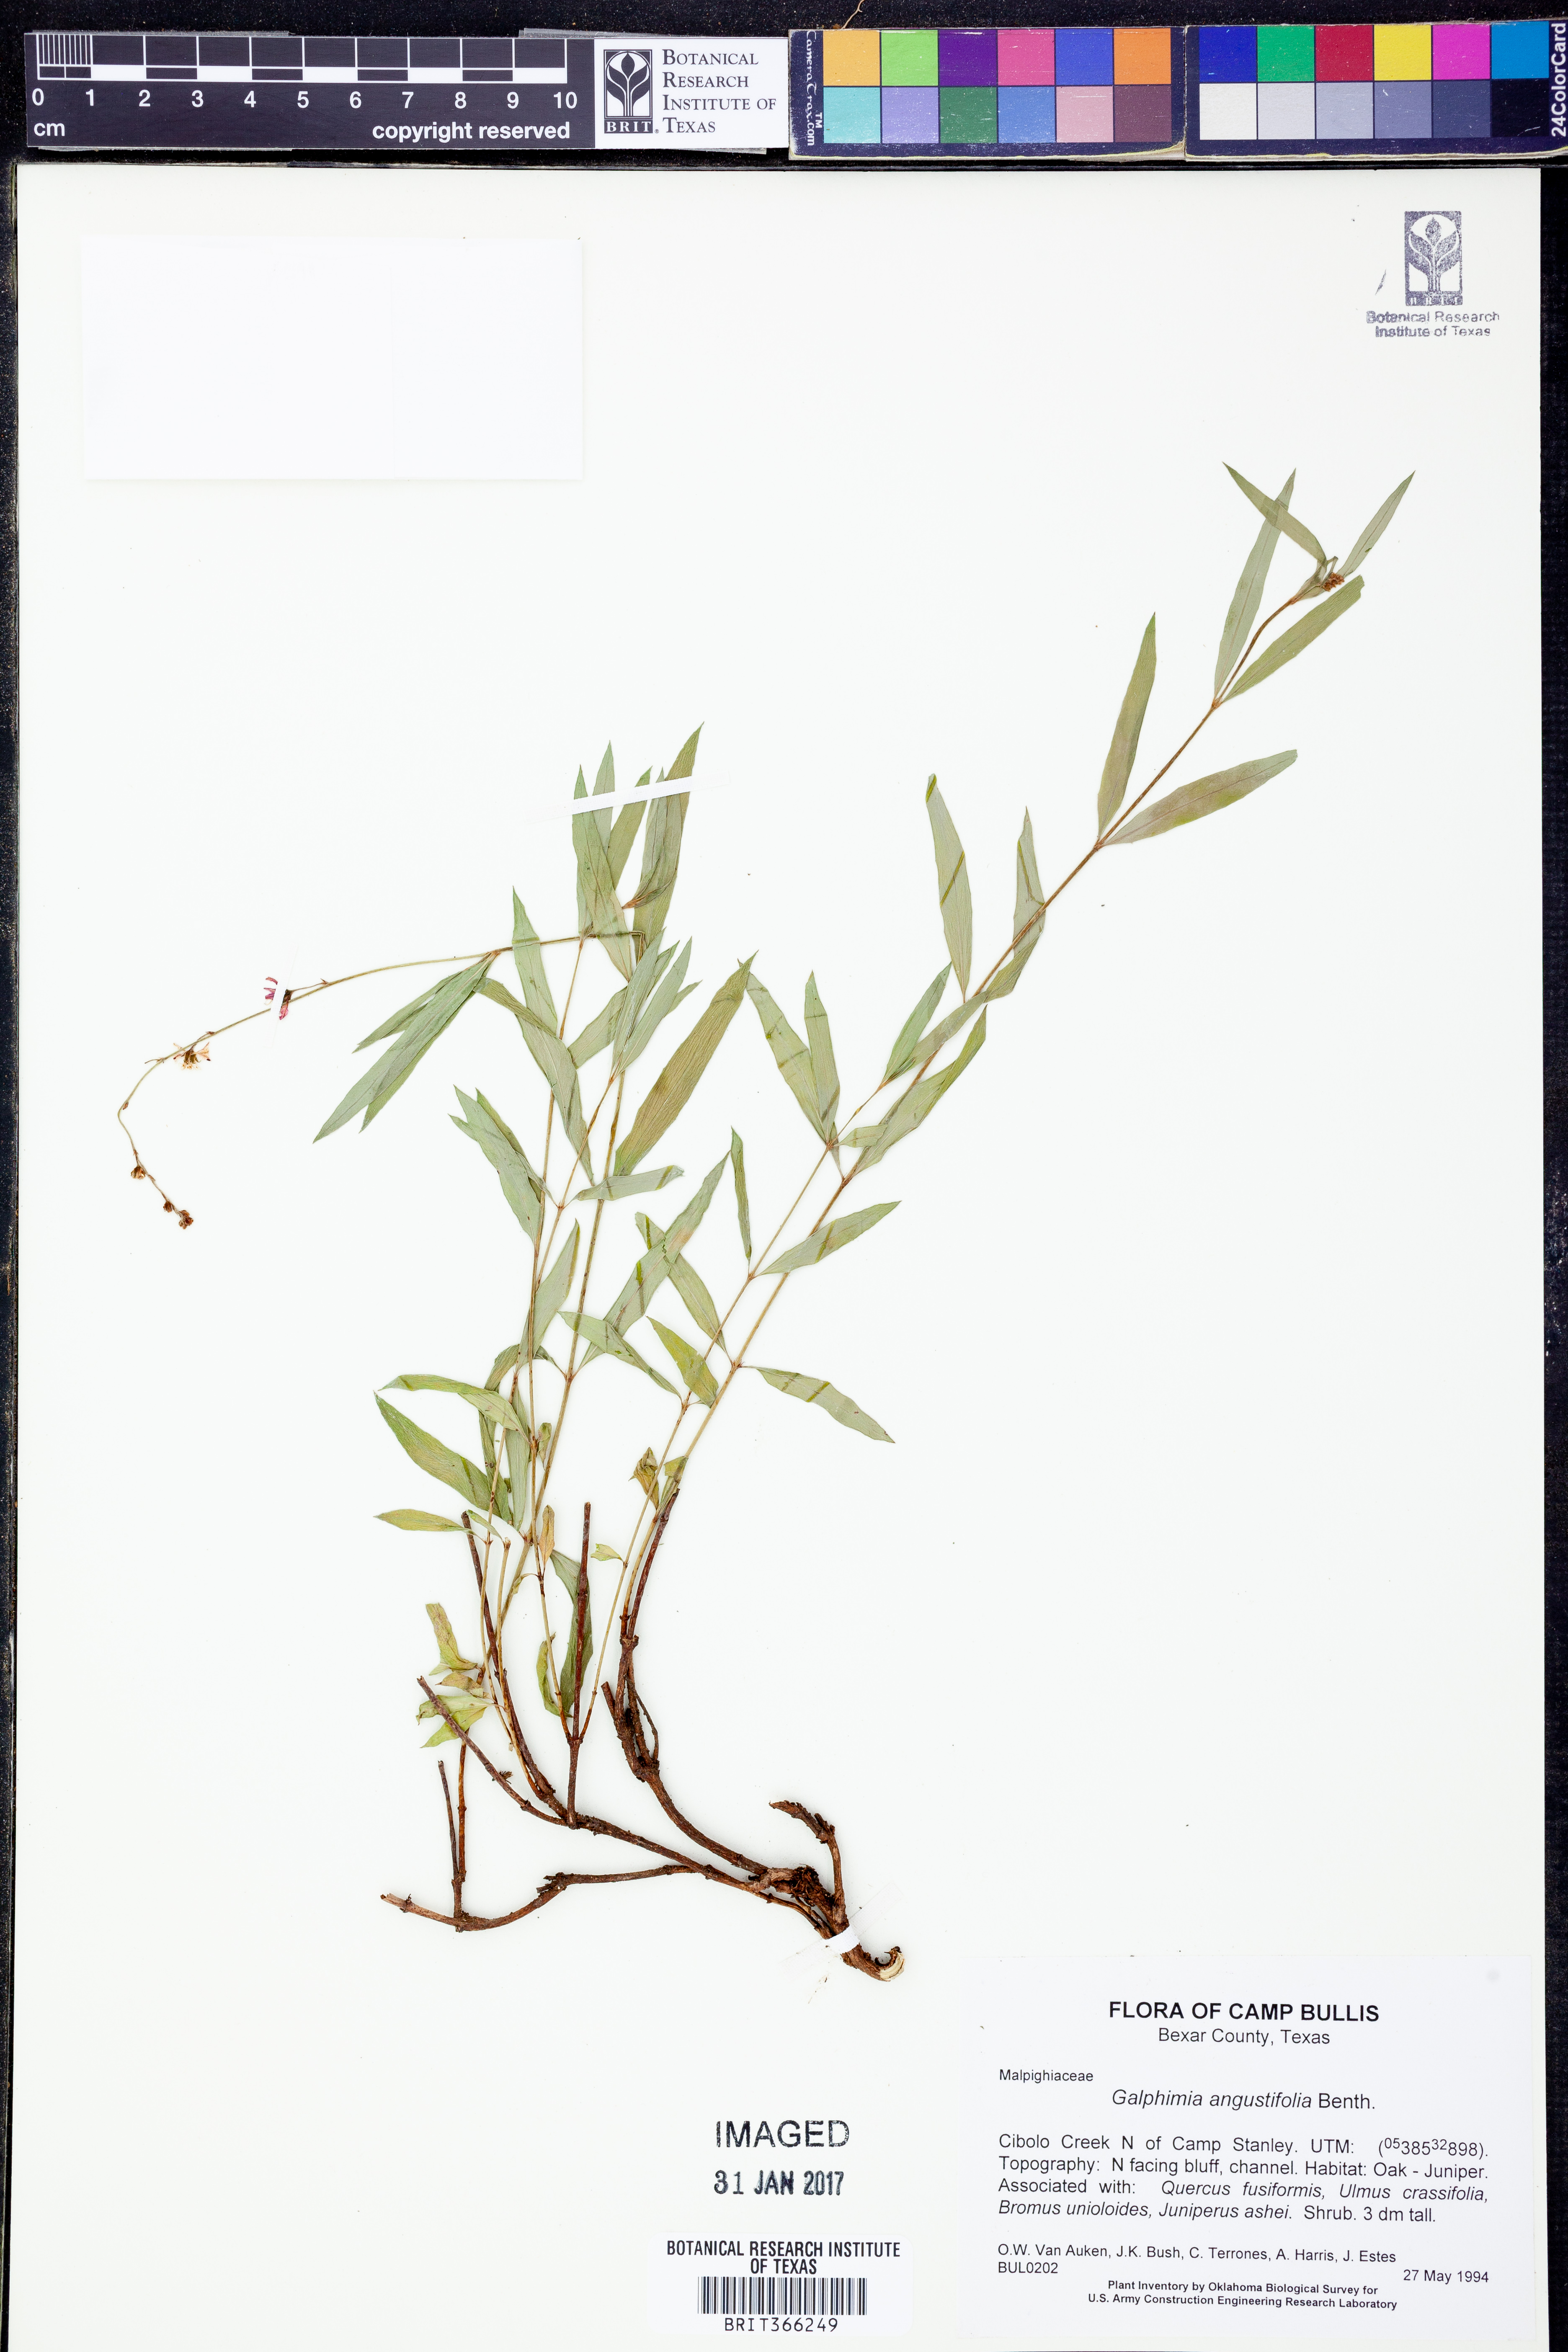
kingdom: Plantae
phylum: Tracheophyta
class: Magnoliopsida
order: Malpighiales
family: Malpighiaceae
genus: Galphimia
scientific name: Galphimia angustifolia
